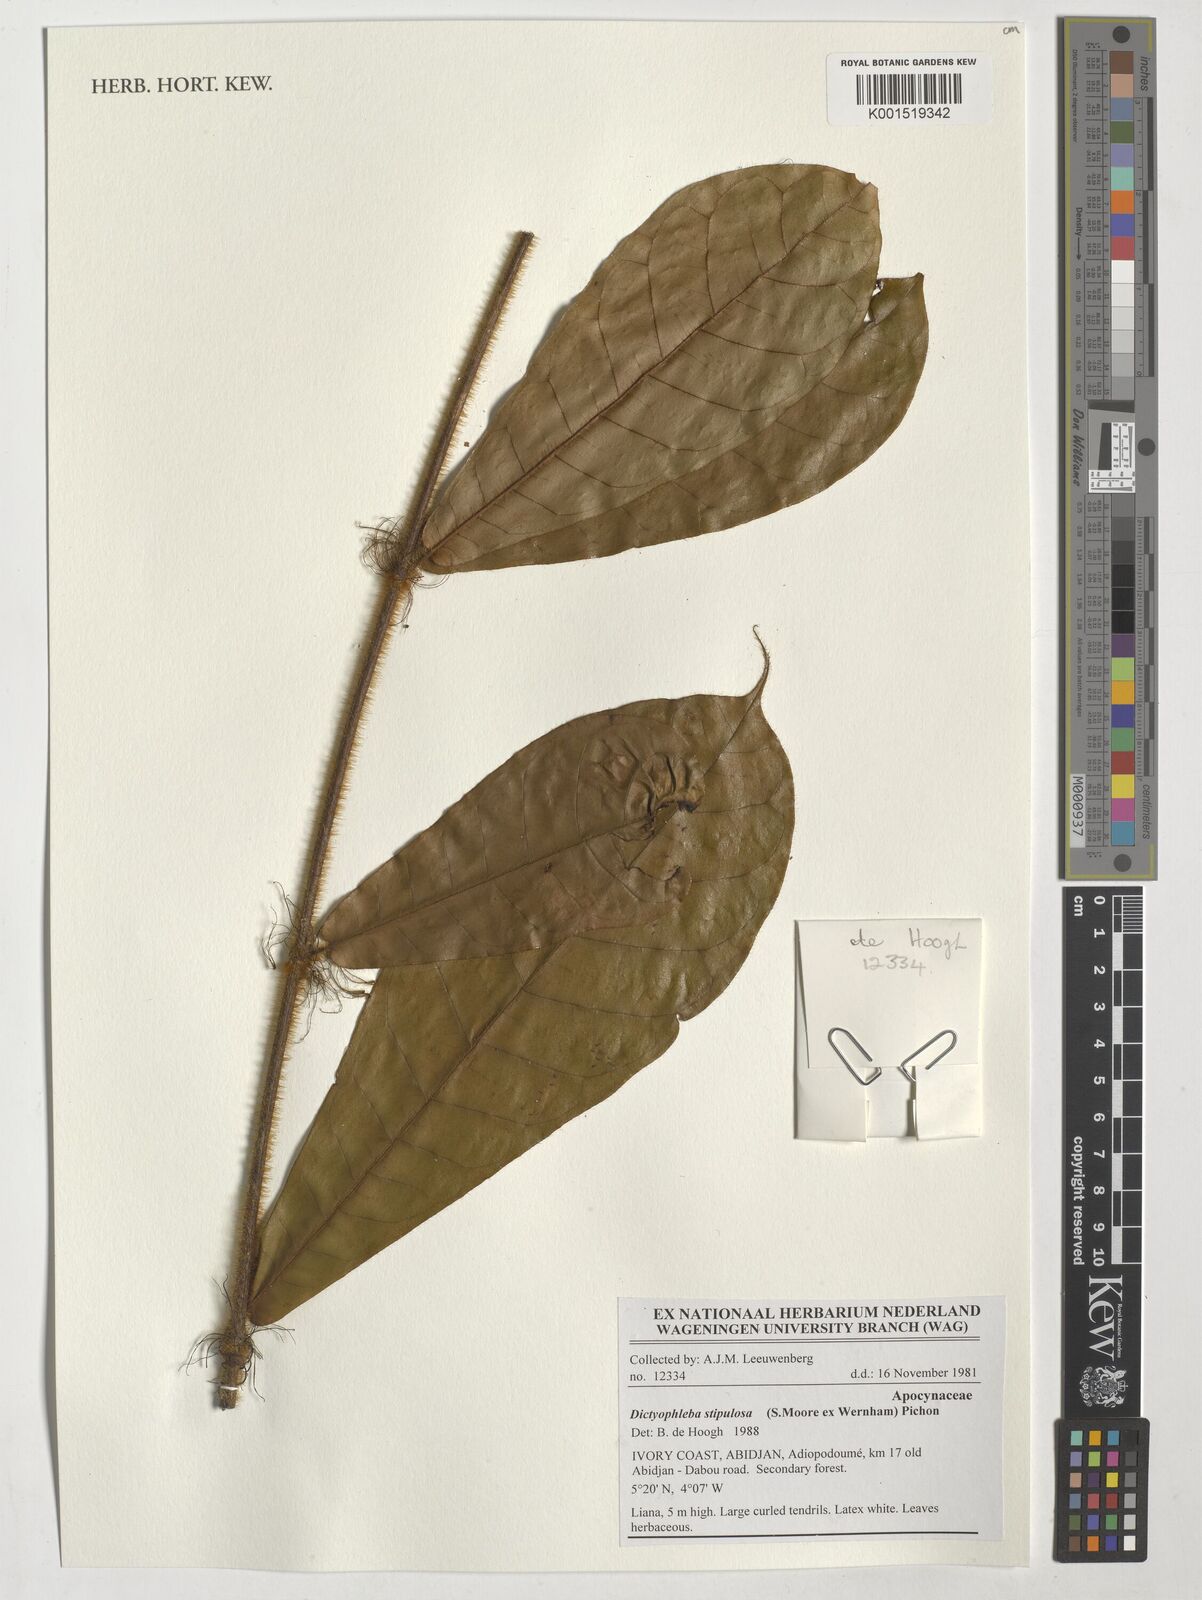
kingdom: Plantae
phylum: Tracheophyta
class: Magnoliopsida
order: Gentianales
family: Apocynaceae
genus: Dictyophleba
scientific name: Dictyophleba stipulosa
